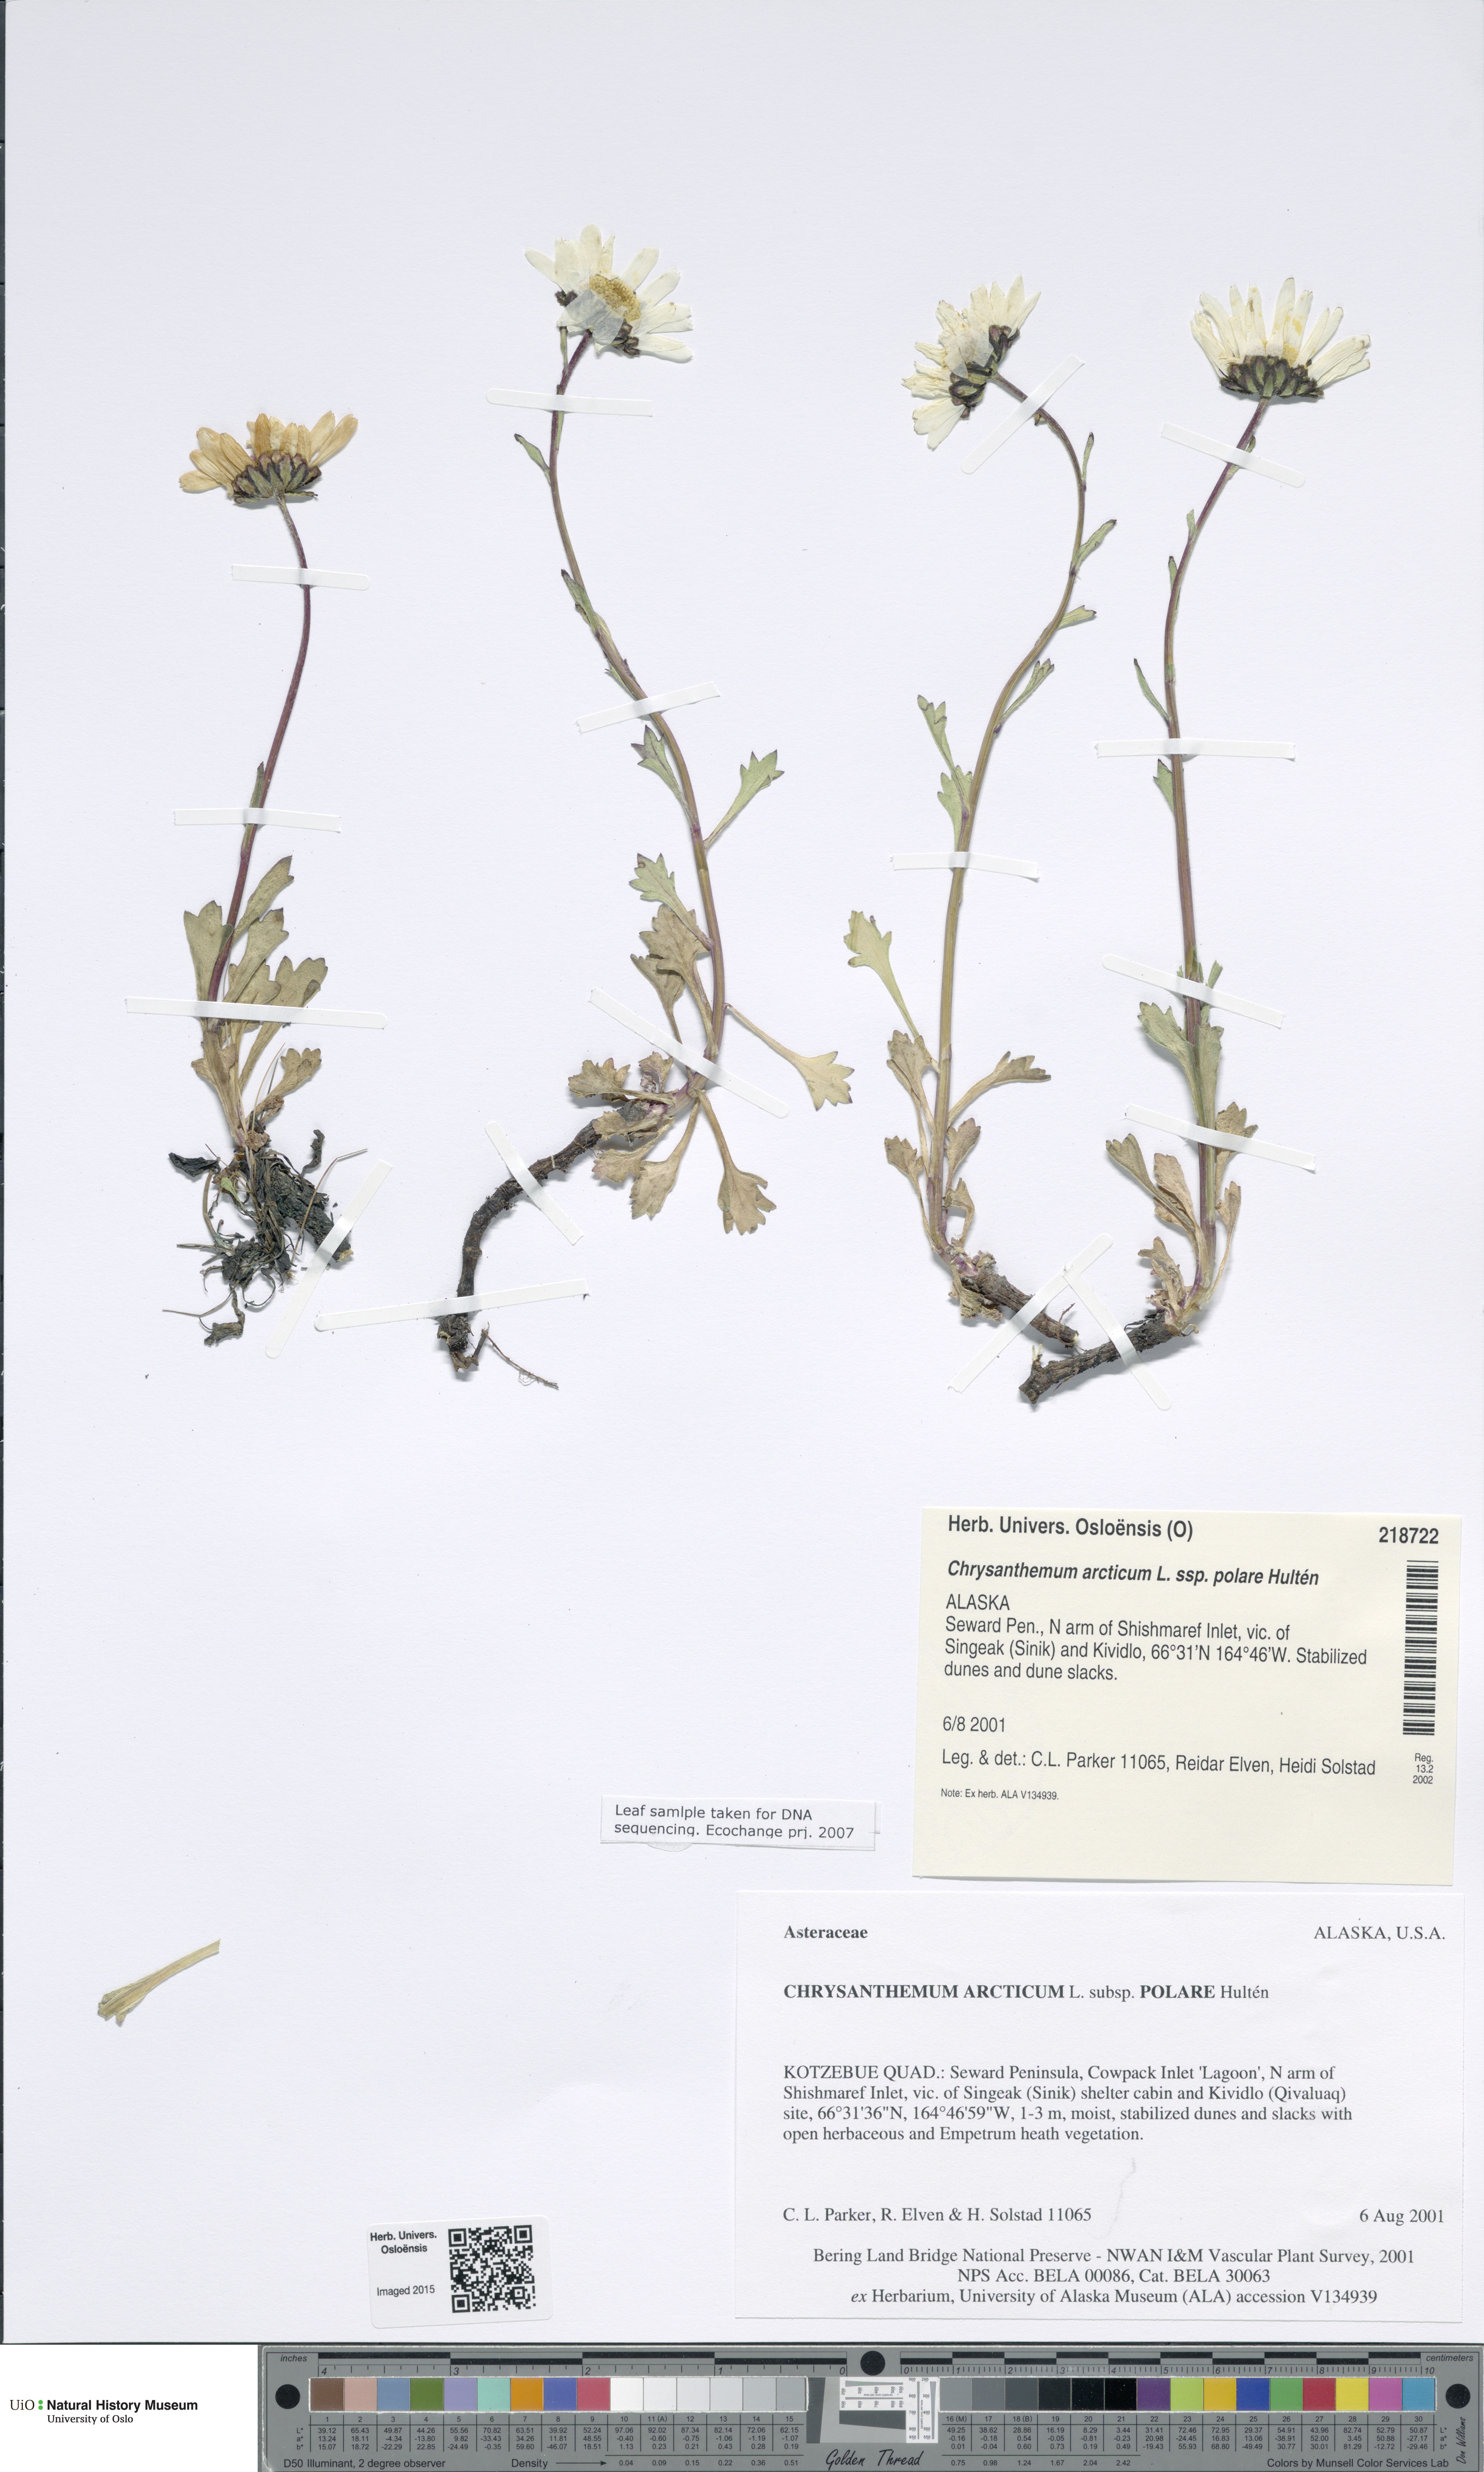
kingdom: Plantae
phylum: Tracheophyta
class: Magnoliopsida
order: Asterales
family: Asteraceae
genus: Arctanthemum
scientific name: Arctanthemum arcticum
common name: Arctic daisy
